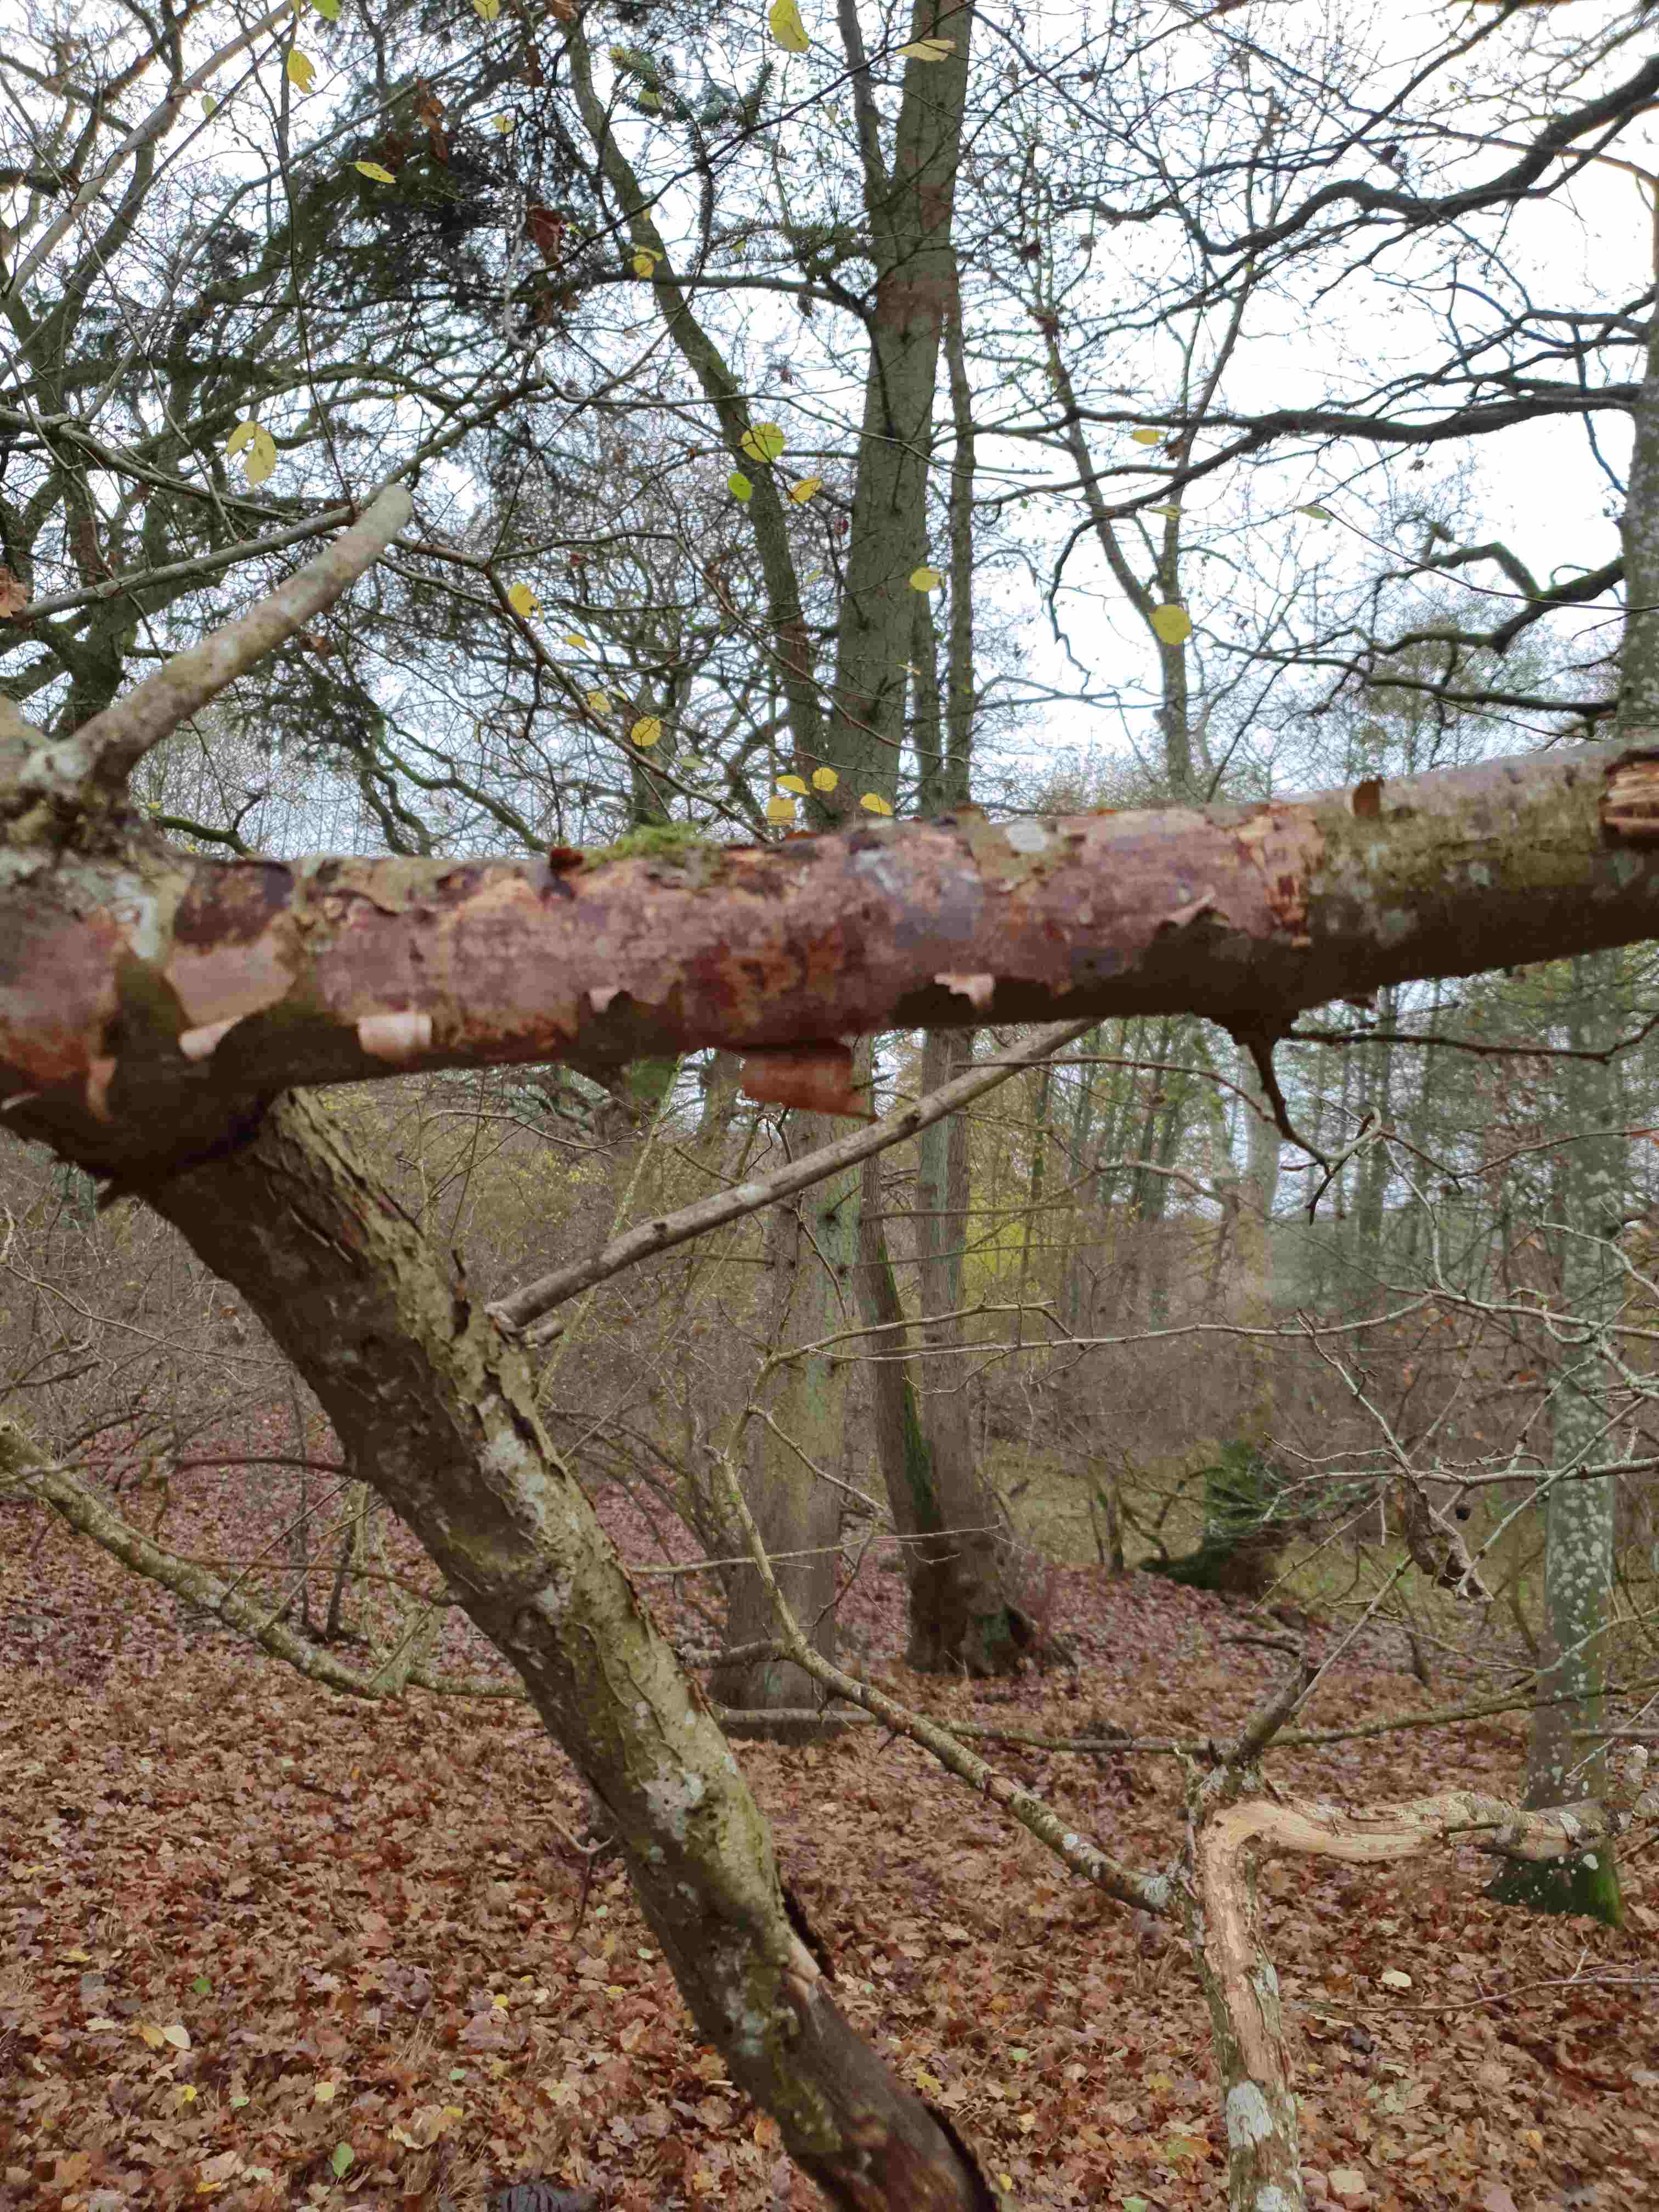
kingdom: Fungi
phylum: Basidiomycota
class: Agaricomycetes
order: Corticiales
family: Vuilleminiaceae
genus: Vuilleminia
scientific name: Vuilleminia coryli
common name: hassel-barksprænger
